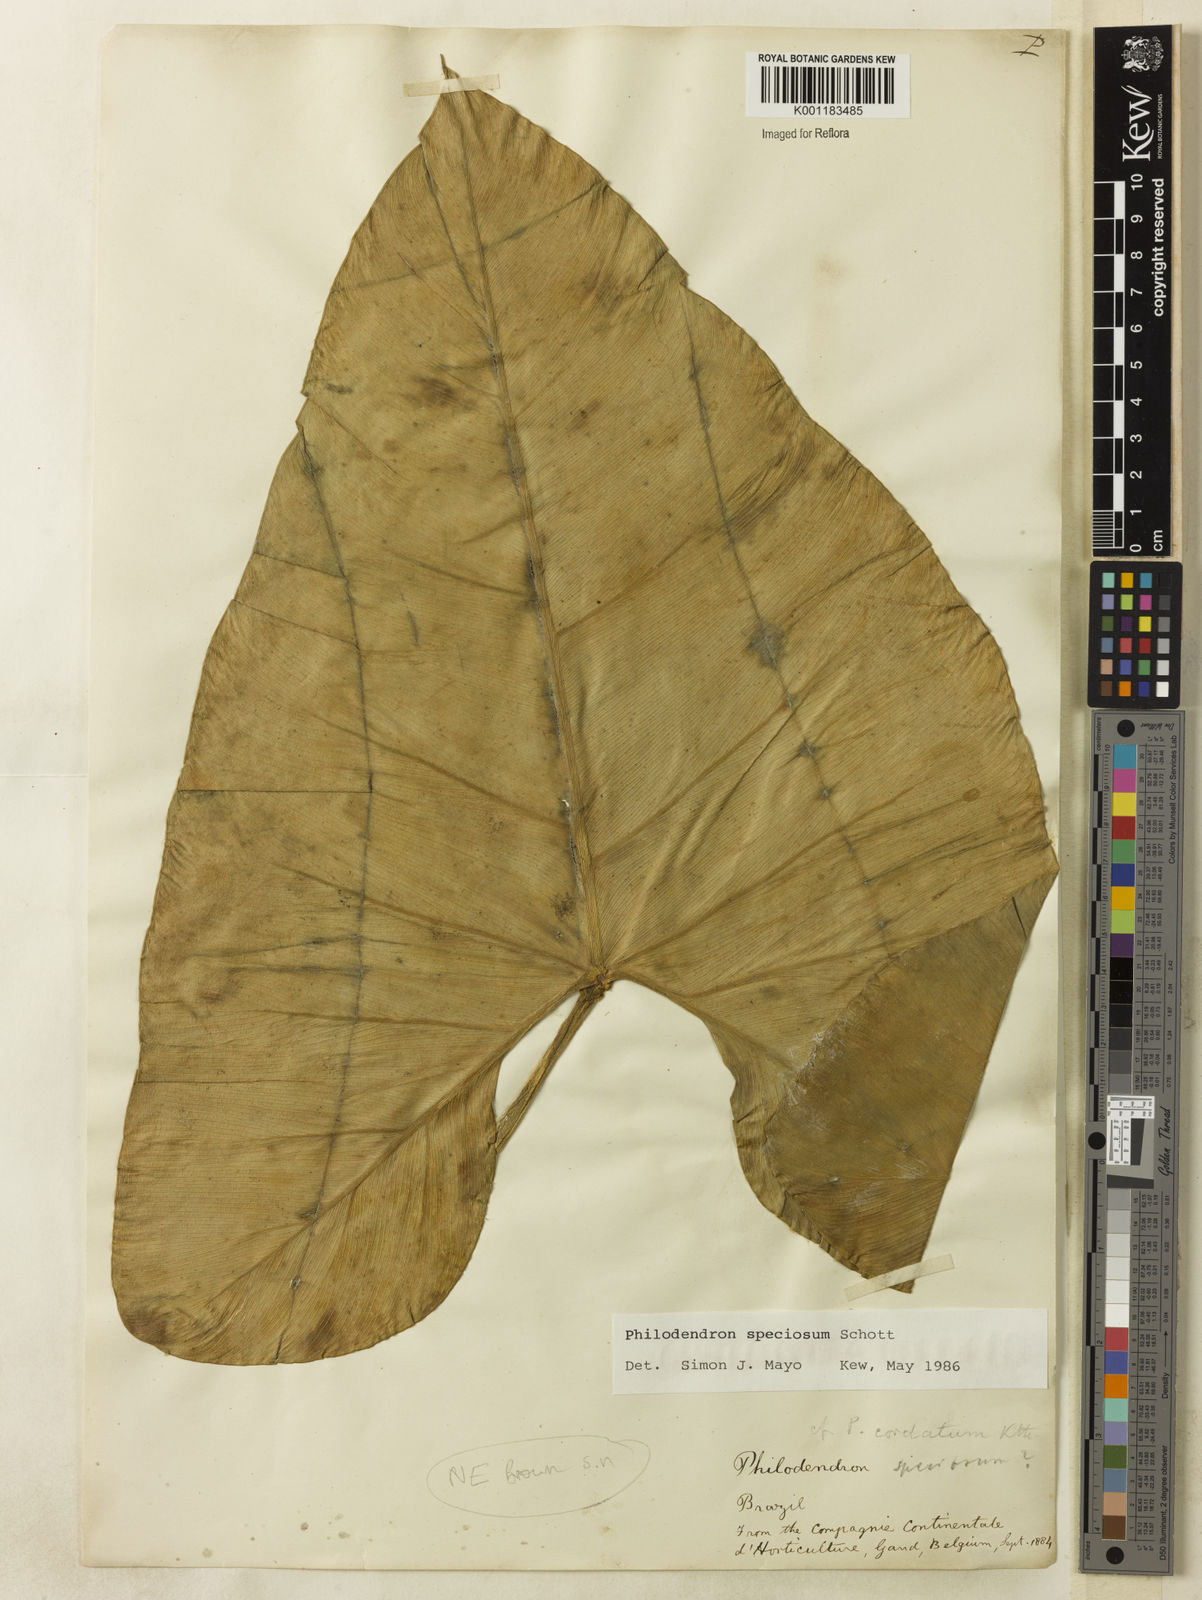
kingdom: Plantae
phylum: Tracheophyta
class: Liliopsida
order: Alismatales
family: Araceae
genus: Thaumatophyllum
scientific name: Thaumatophyllum speciosum
